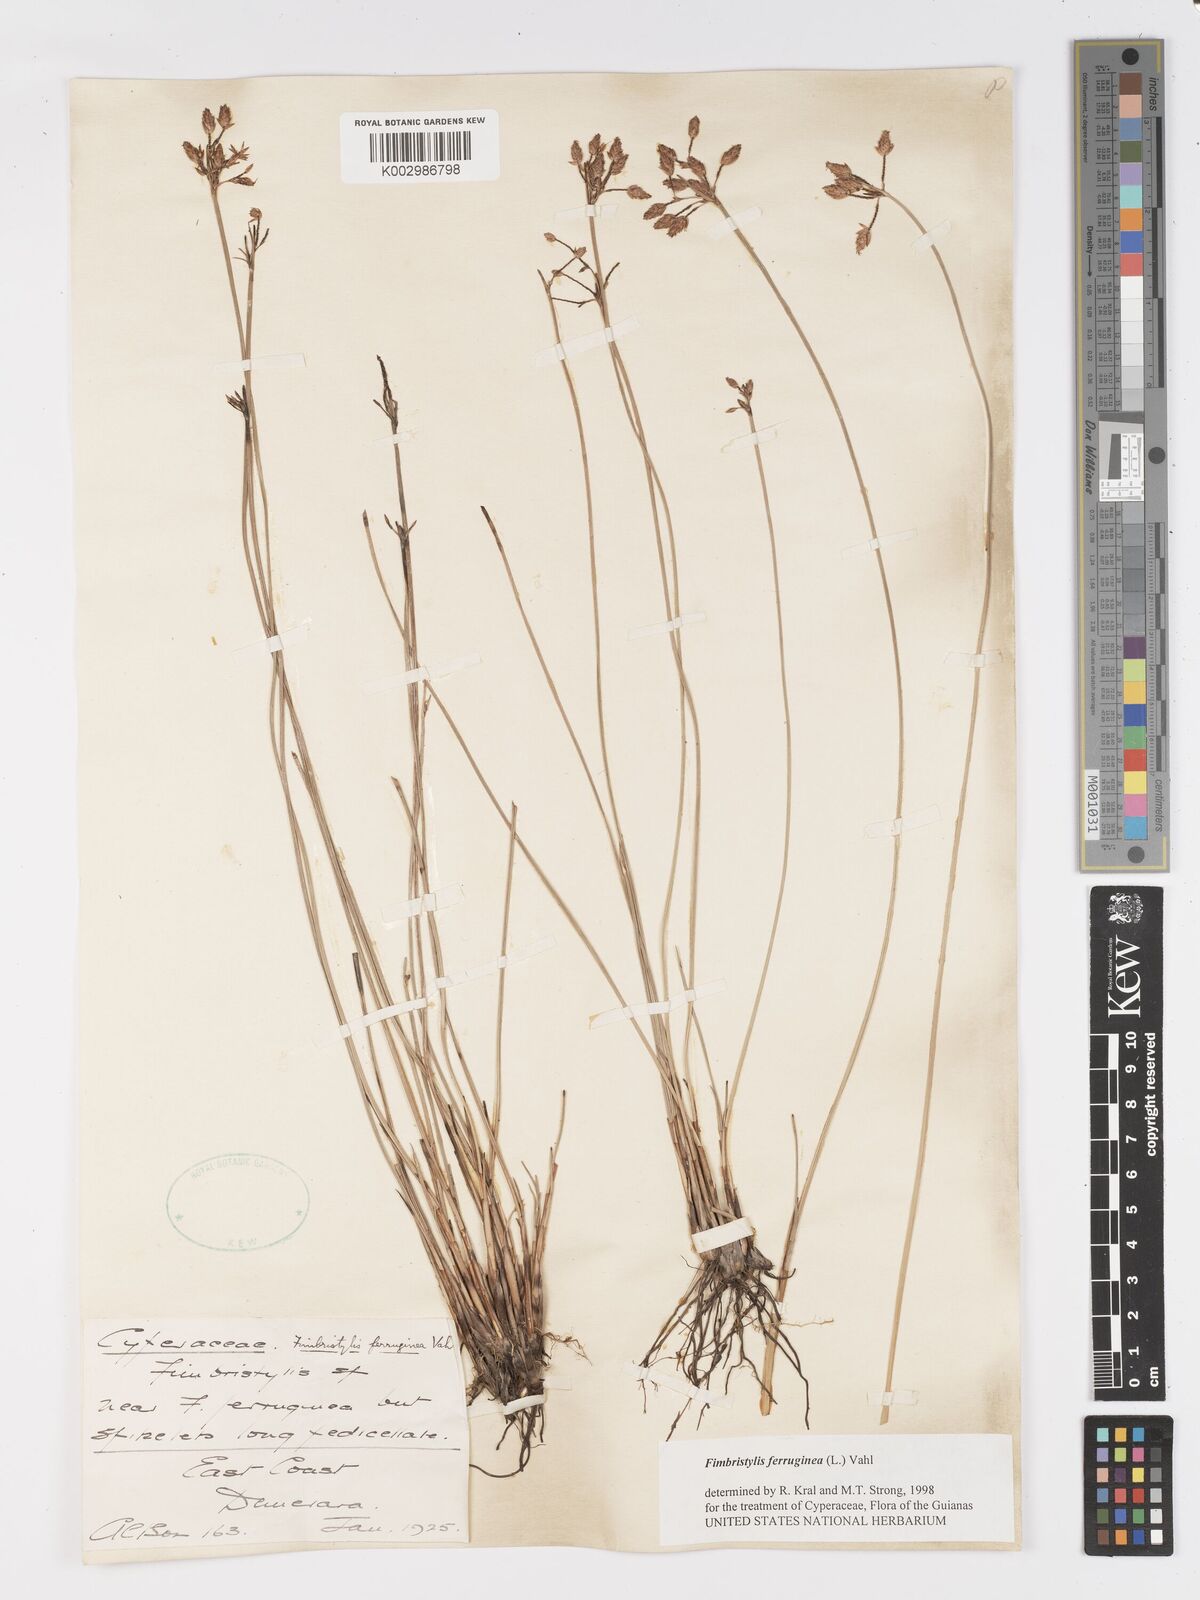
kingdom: Plantae
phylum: Tracheophyta
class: Liliopsida
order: Poales
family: Cyperaceae
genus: Fimbristylis
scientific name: Fimbristylis ferruginea
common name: West indian fimbry
